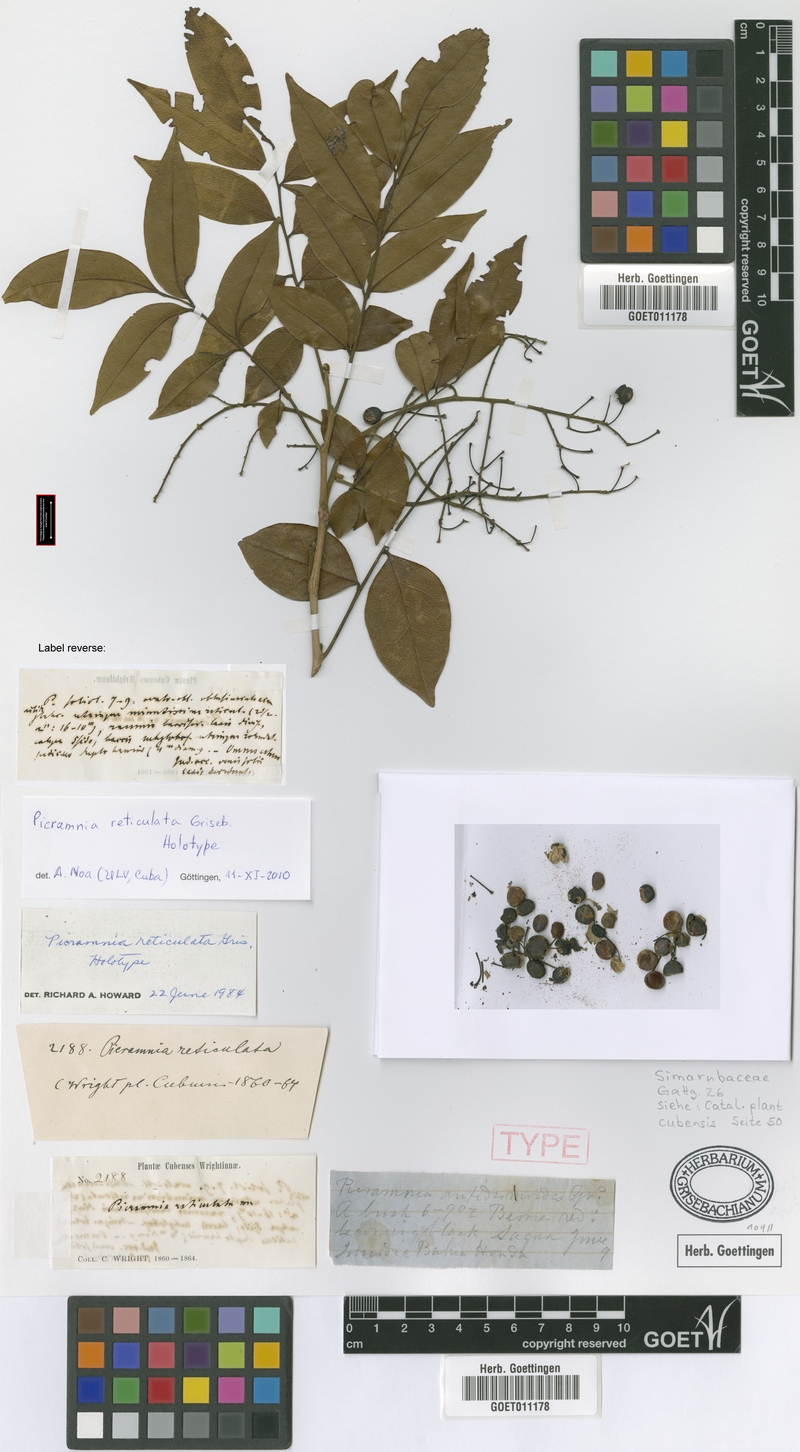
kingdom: Plantae
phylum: Tracheophyta
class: Magnoliopsida
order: Picramniales
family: Picramniaceae
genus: Picramnia
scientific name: Picramnia reticulata
